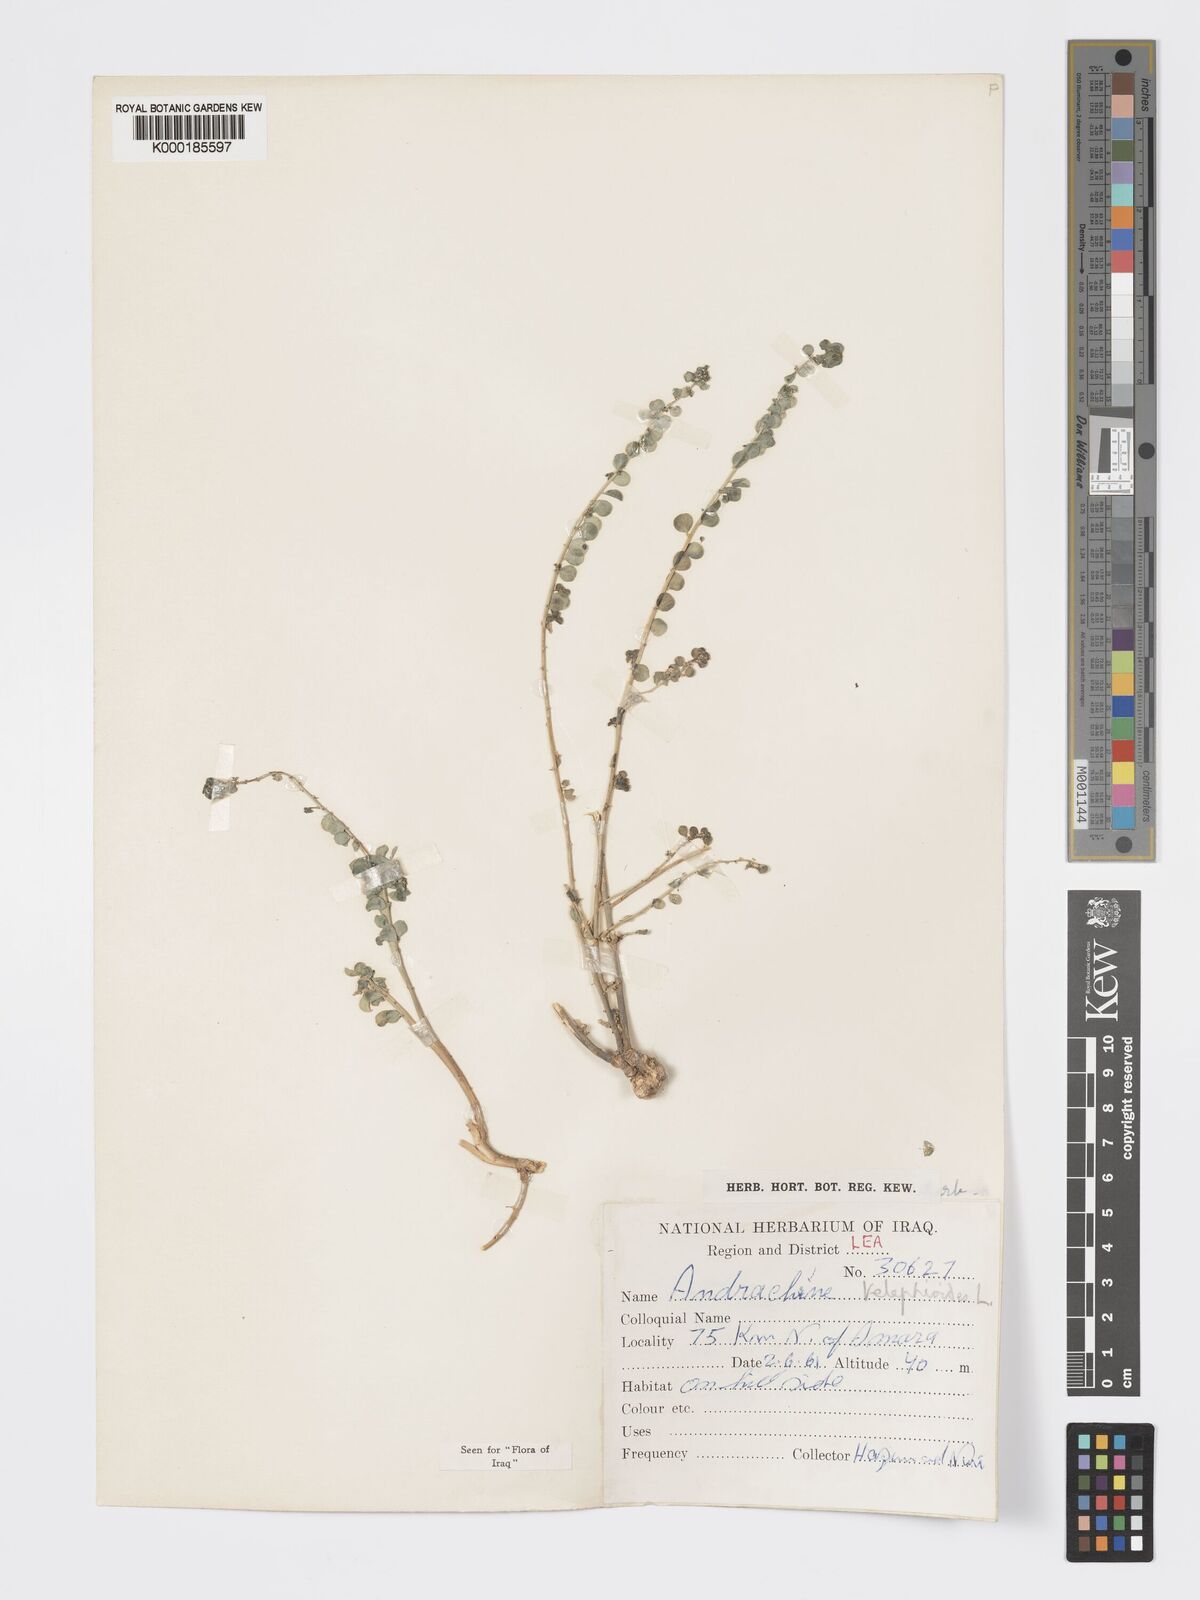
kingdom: Plantae
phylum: Tracheophyta
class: Magnoliopsida
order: Malpighiales
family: Phyllanthaceae
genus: Andrachne
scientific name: Andrachne telephioides
